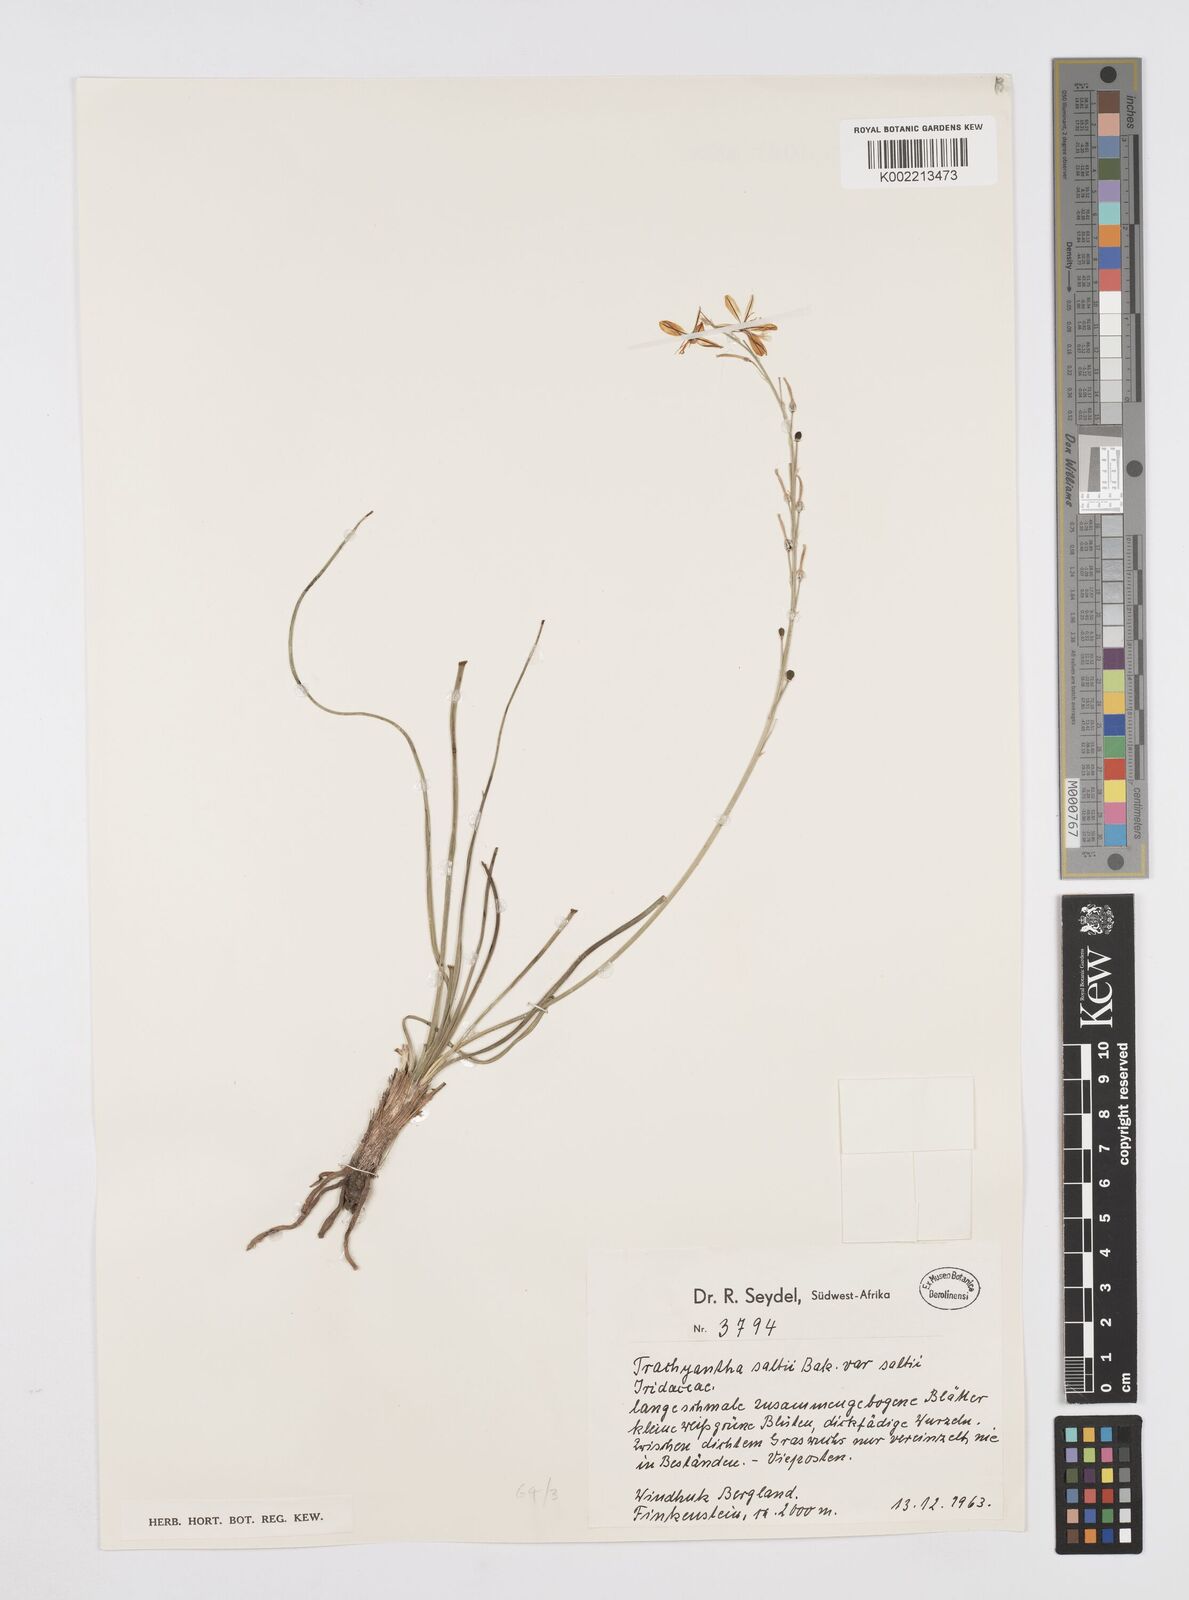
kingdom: Plantae
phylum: Tracheophyta
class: Liliopsida
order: Asparagales
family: Asphodelaceae
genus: Trachyandra
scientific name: Trachyandra saltii
